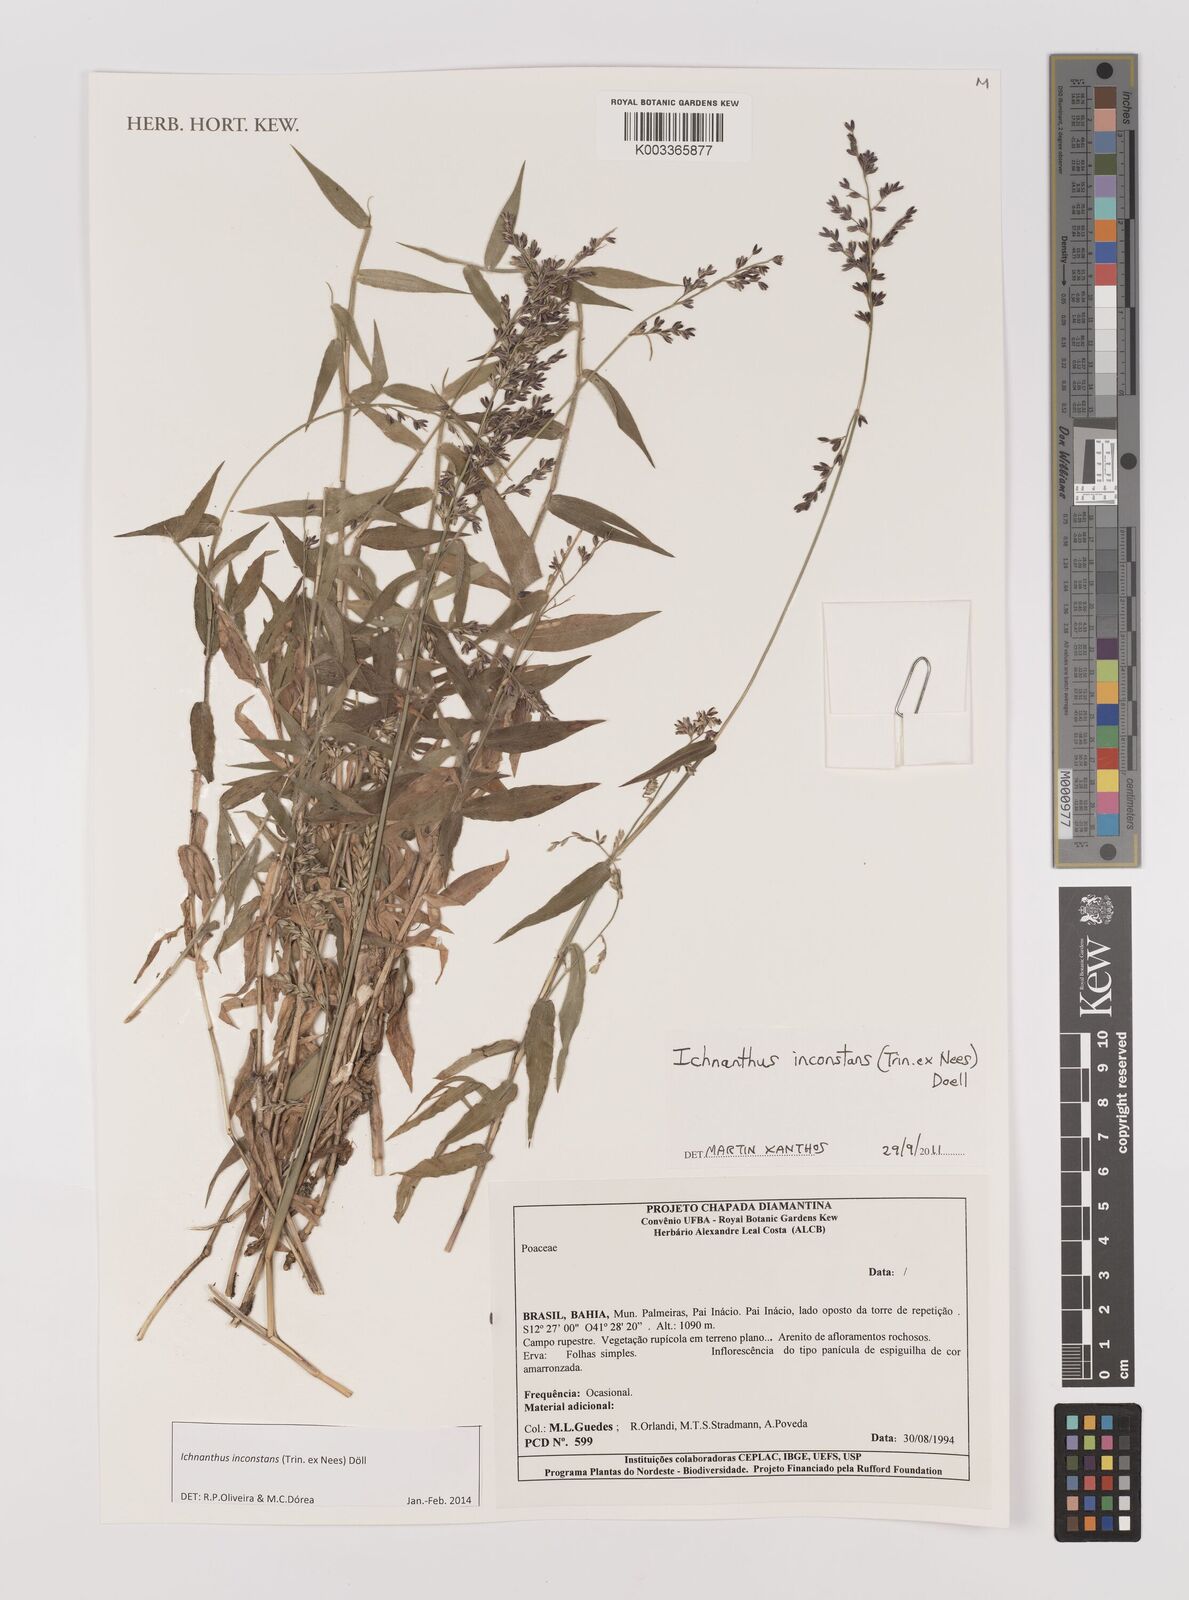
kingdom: Plantae
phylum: Tracheophyta
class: Liliopsida
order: Poales
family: Poaceae
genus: Ichnanthus
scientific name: Ichnanthus inconstans
